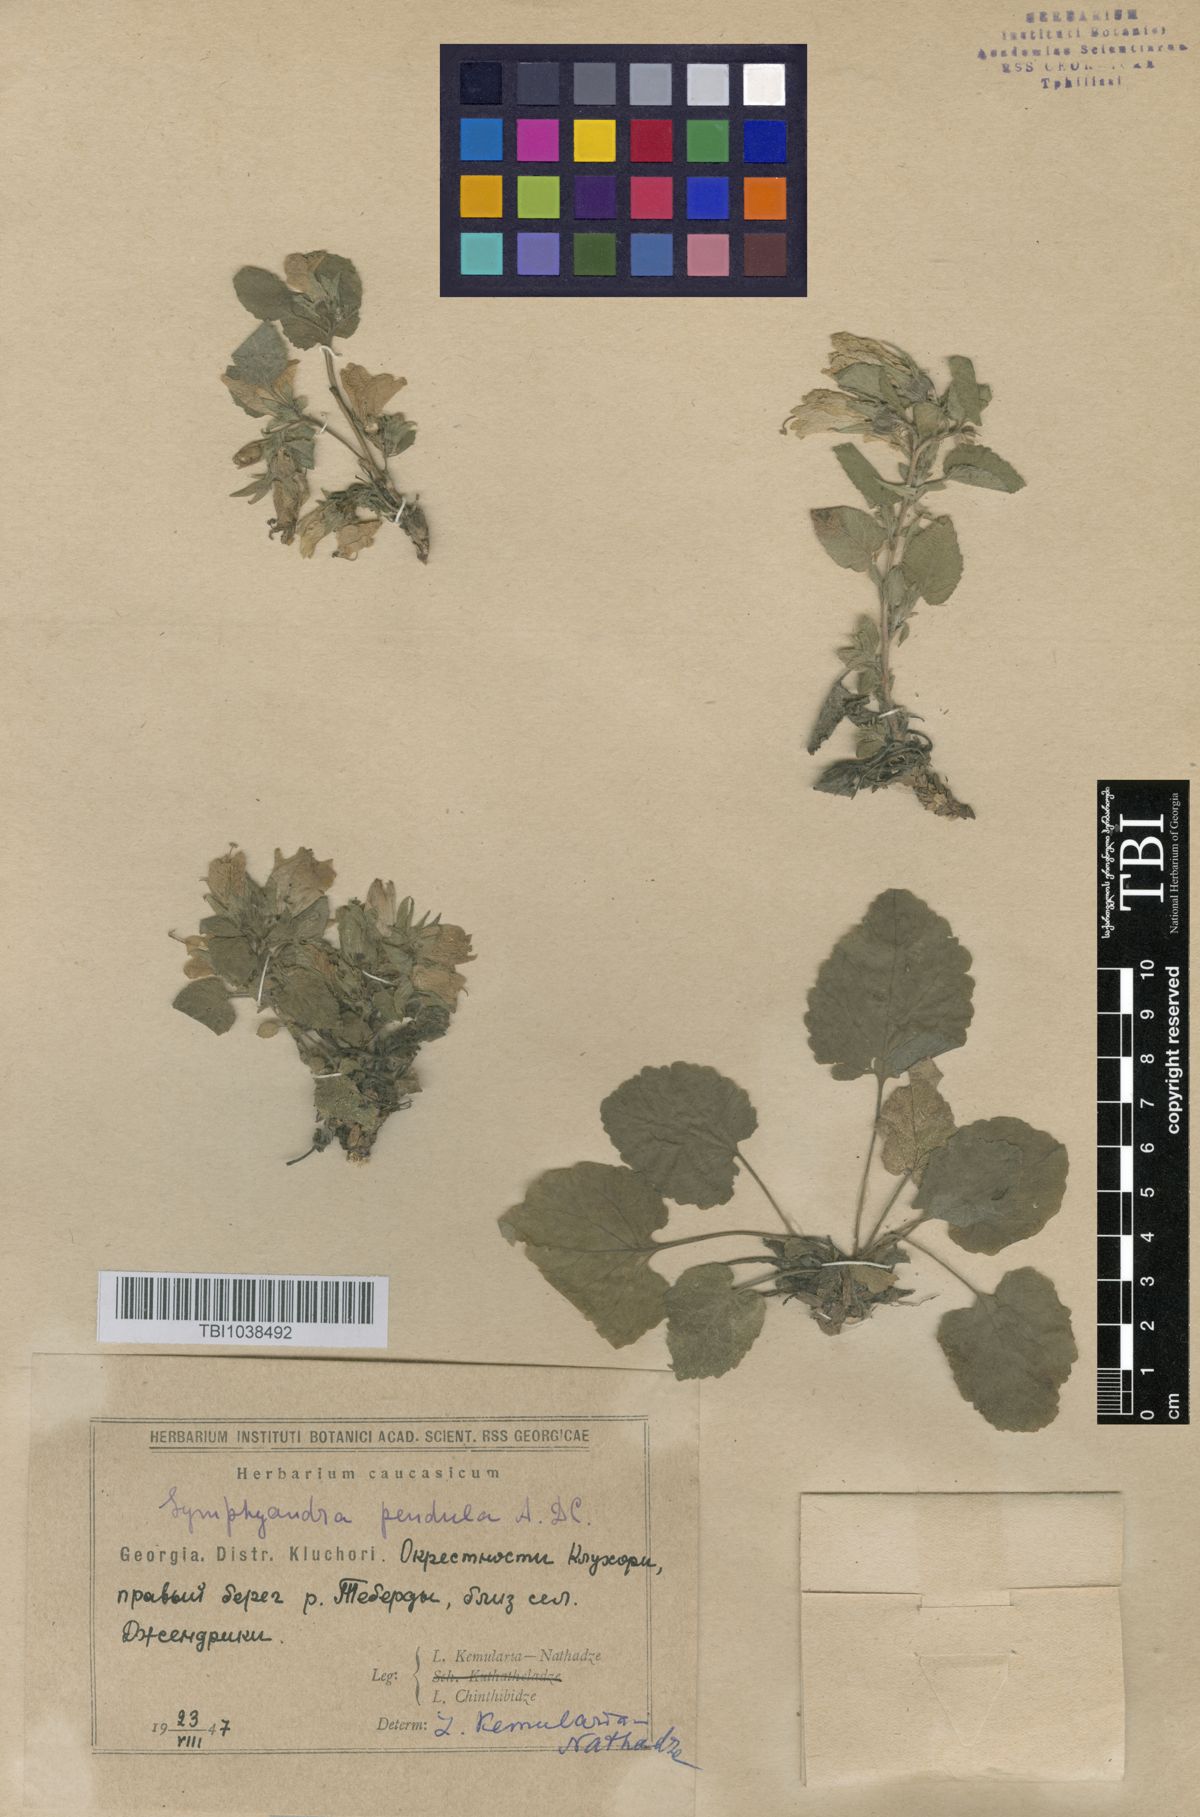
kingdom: Plantae
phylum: Tracheophyta
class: Magnoliopsida
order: Asterales
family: Campanulaceae
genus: Campanula
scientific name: Campanula pendula
